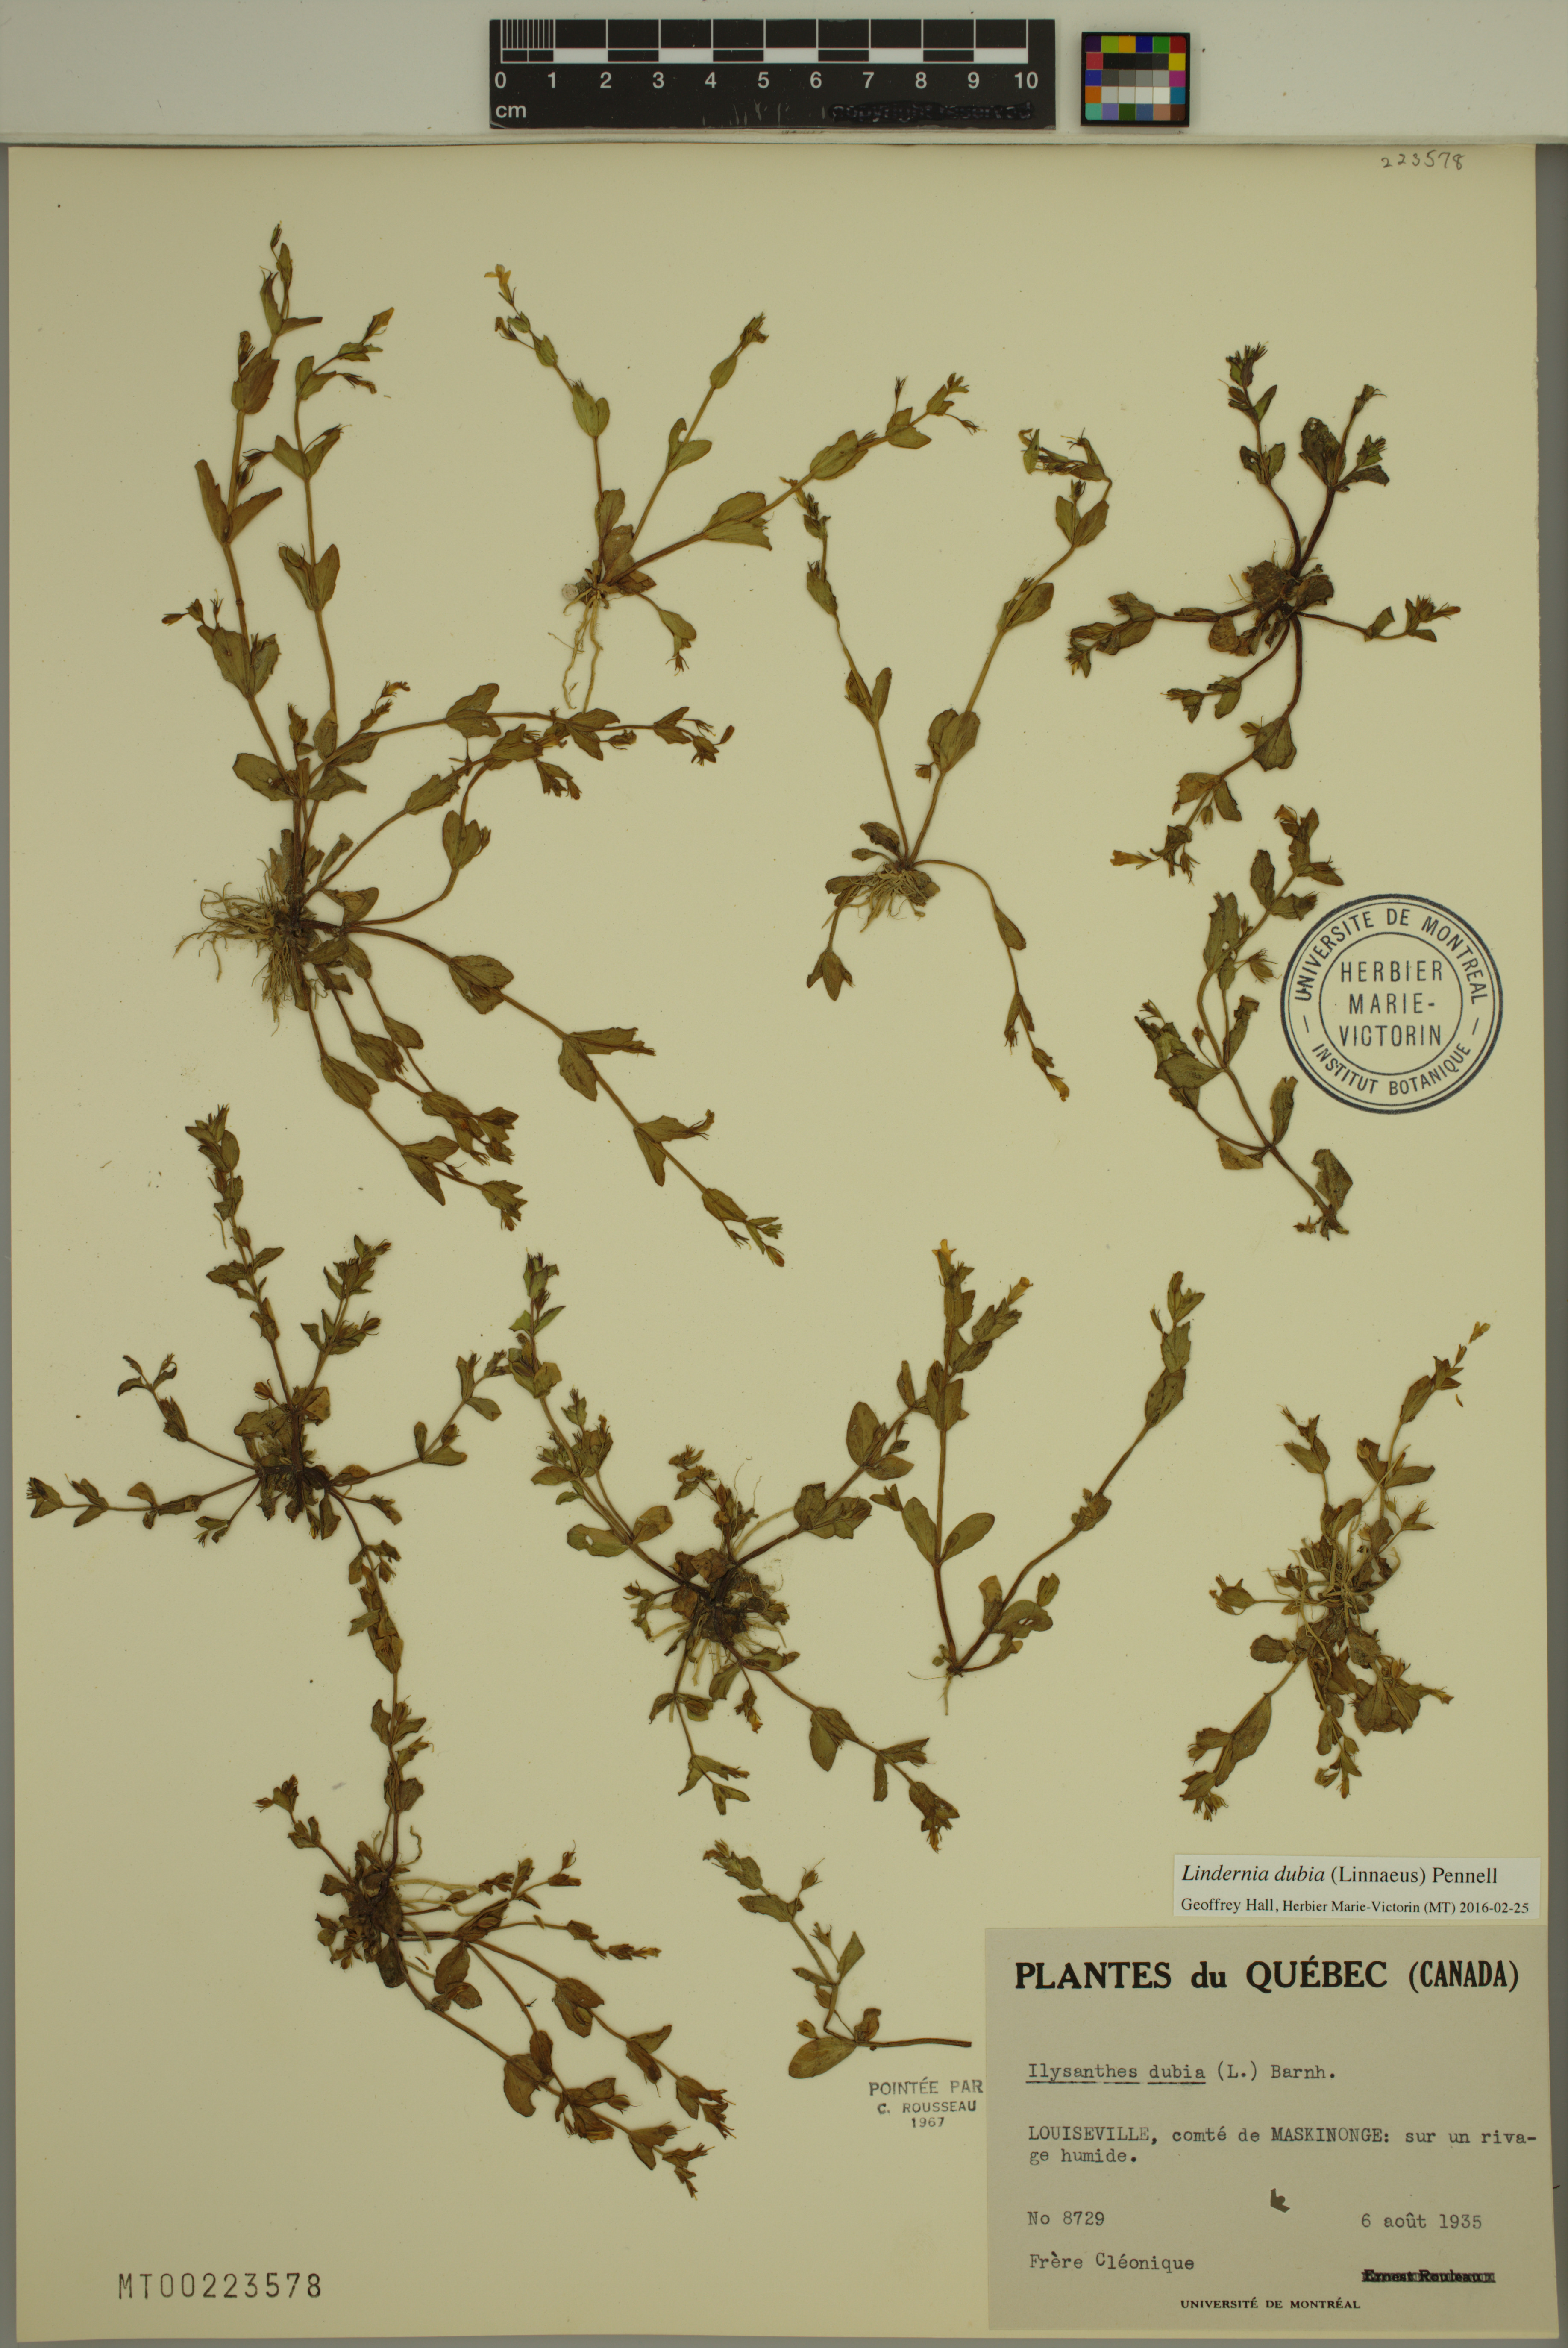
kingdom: Plantae
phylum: Tracheophyta
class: Magnoliopsida
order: Lamiales
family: Linderniaceae
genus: Lindernia
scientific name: Lindernia dubia
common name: Annual false pimpernel
